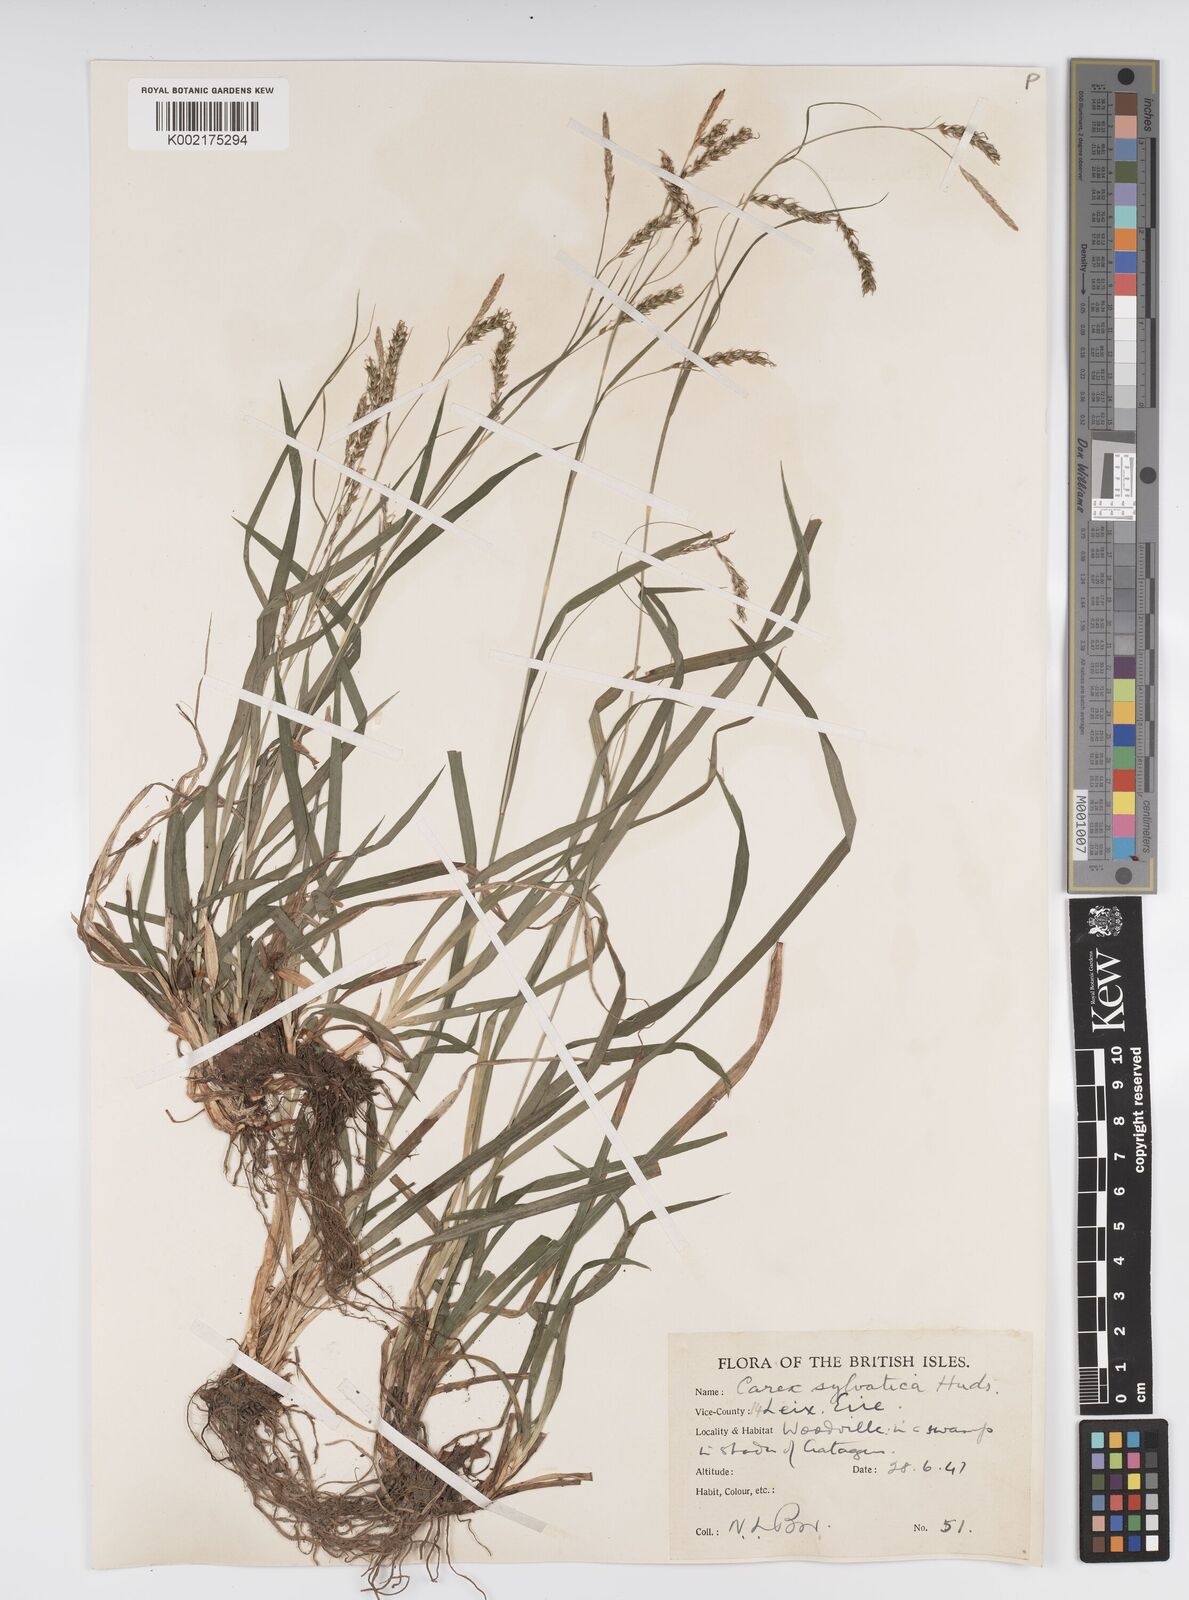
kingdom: Plantae
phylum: Tracheophyta
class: Liliopsida
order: Poales
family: Cyperaceae
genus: Carex
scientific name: Carex sylvatica
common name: Wood-sedge
